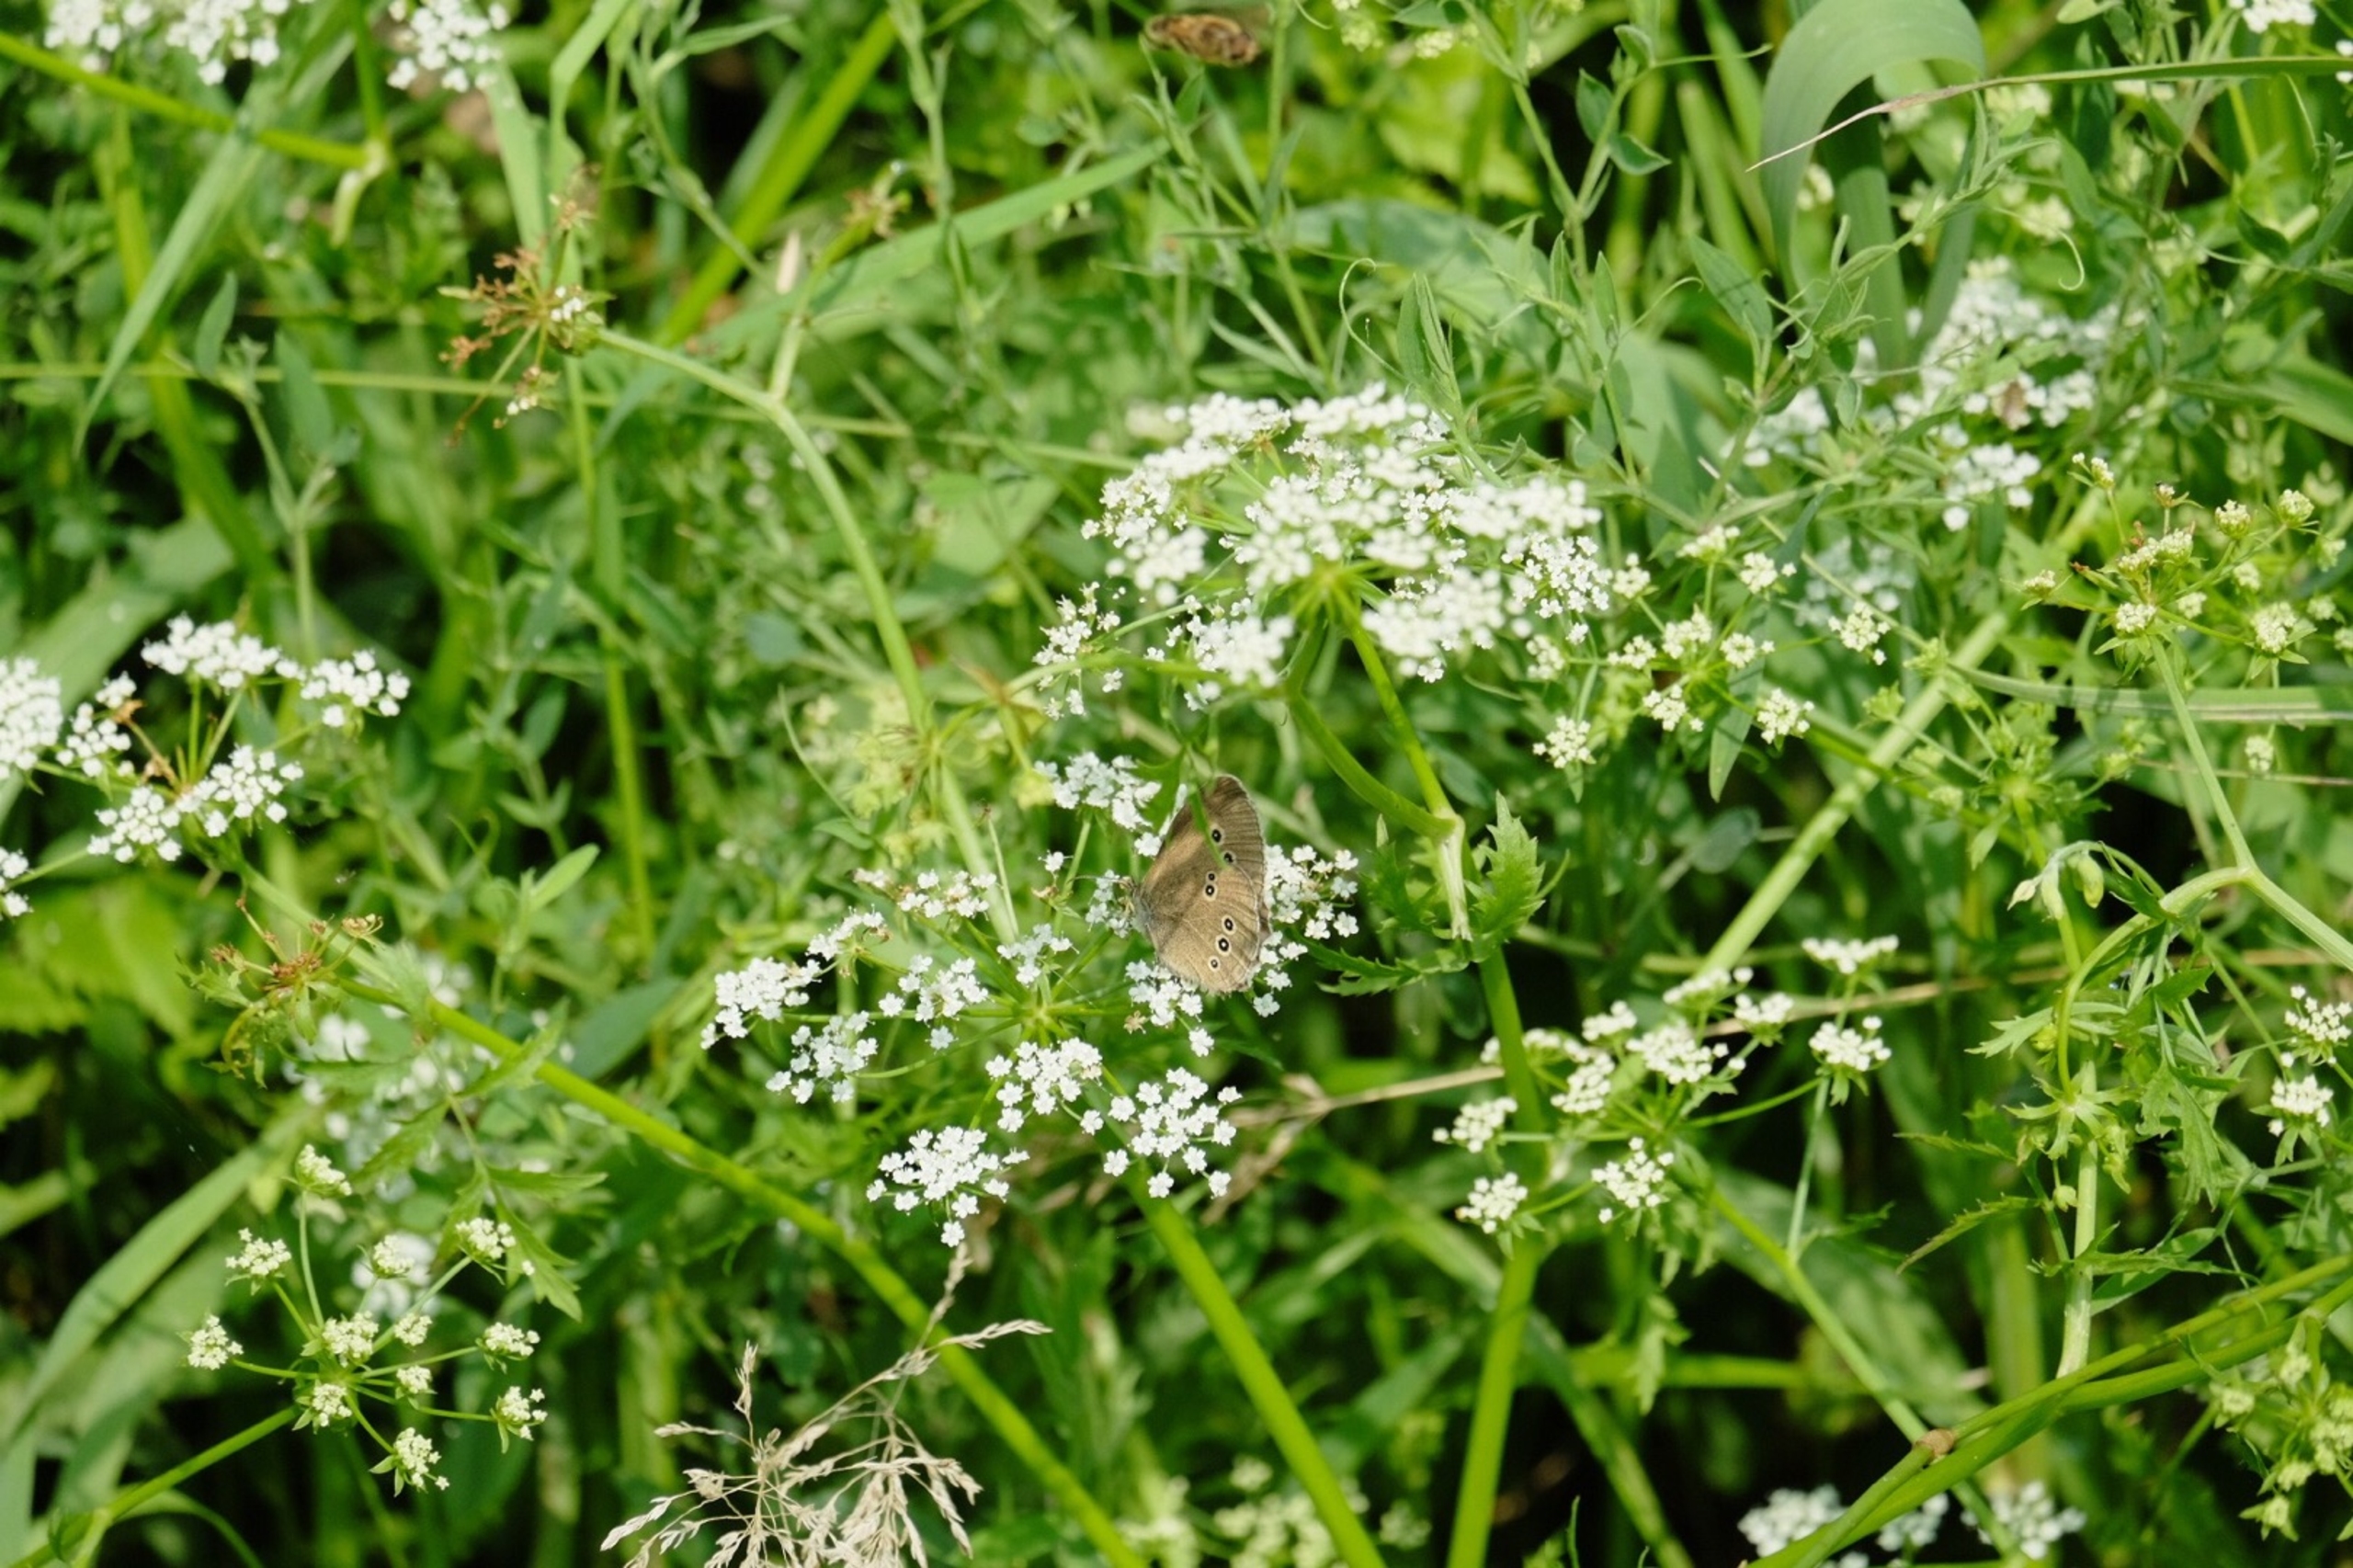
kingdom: Animalia
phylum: Arthropoda
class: Insecta
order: Lepidoptera
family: Nymphalidae
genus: Aphantopus
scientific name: Aphantopus hyperantus
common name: Engrandøje
